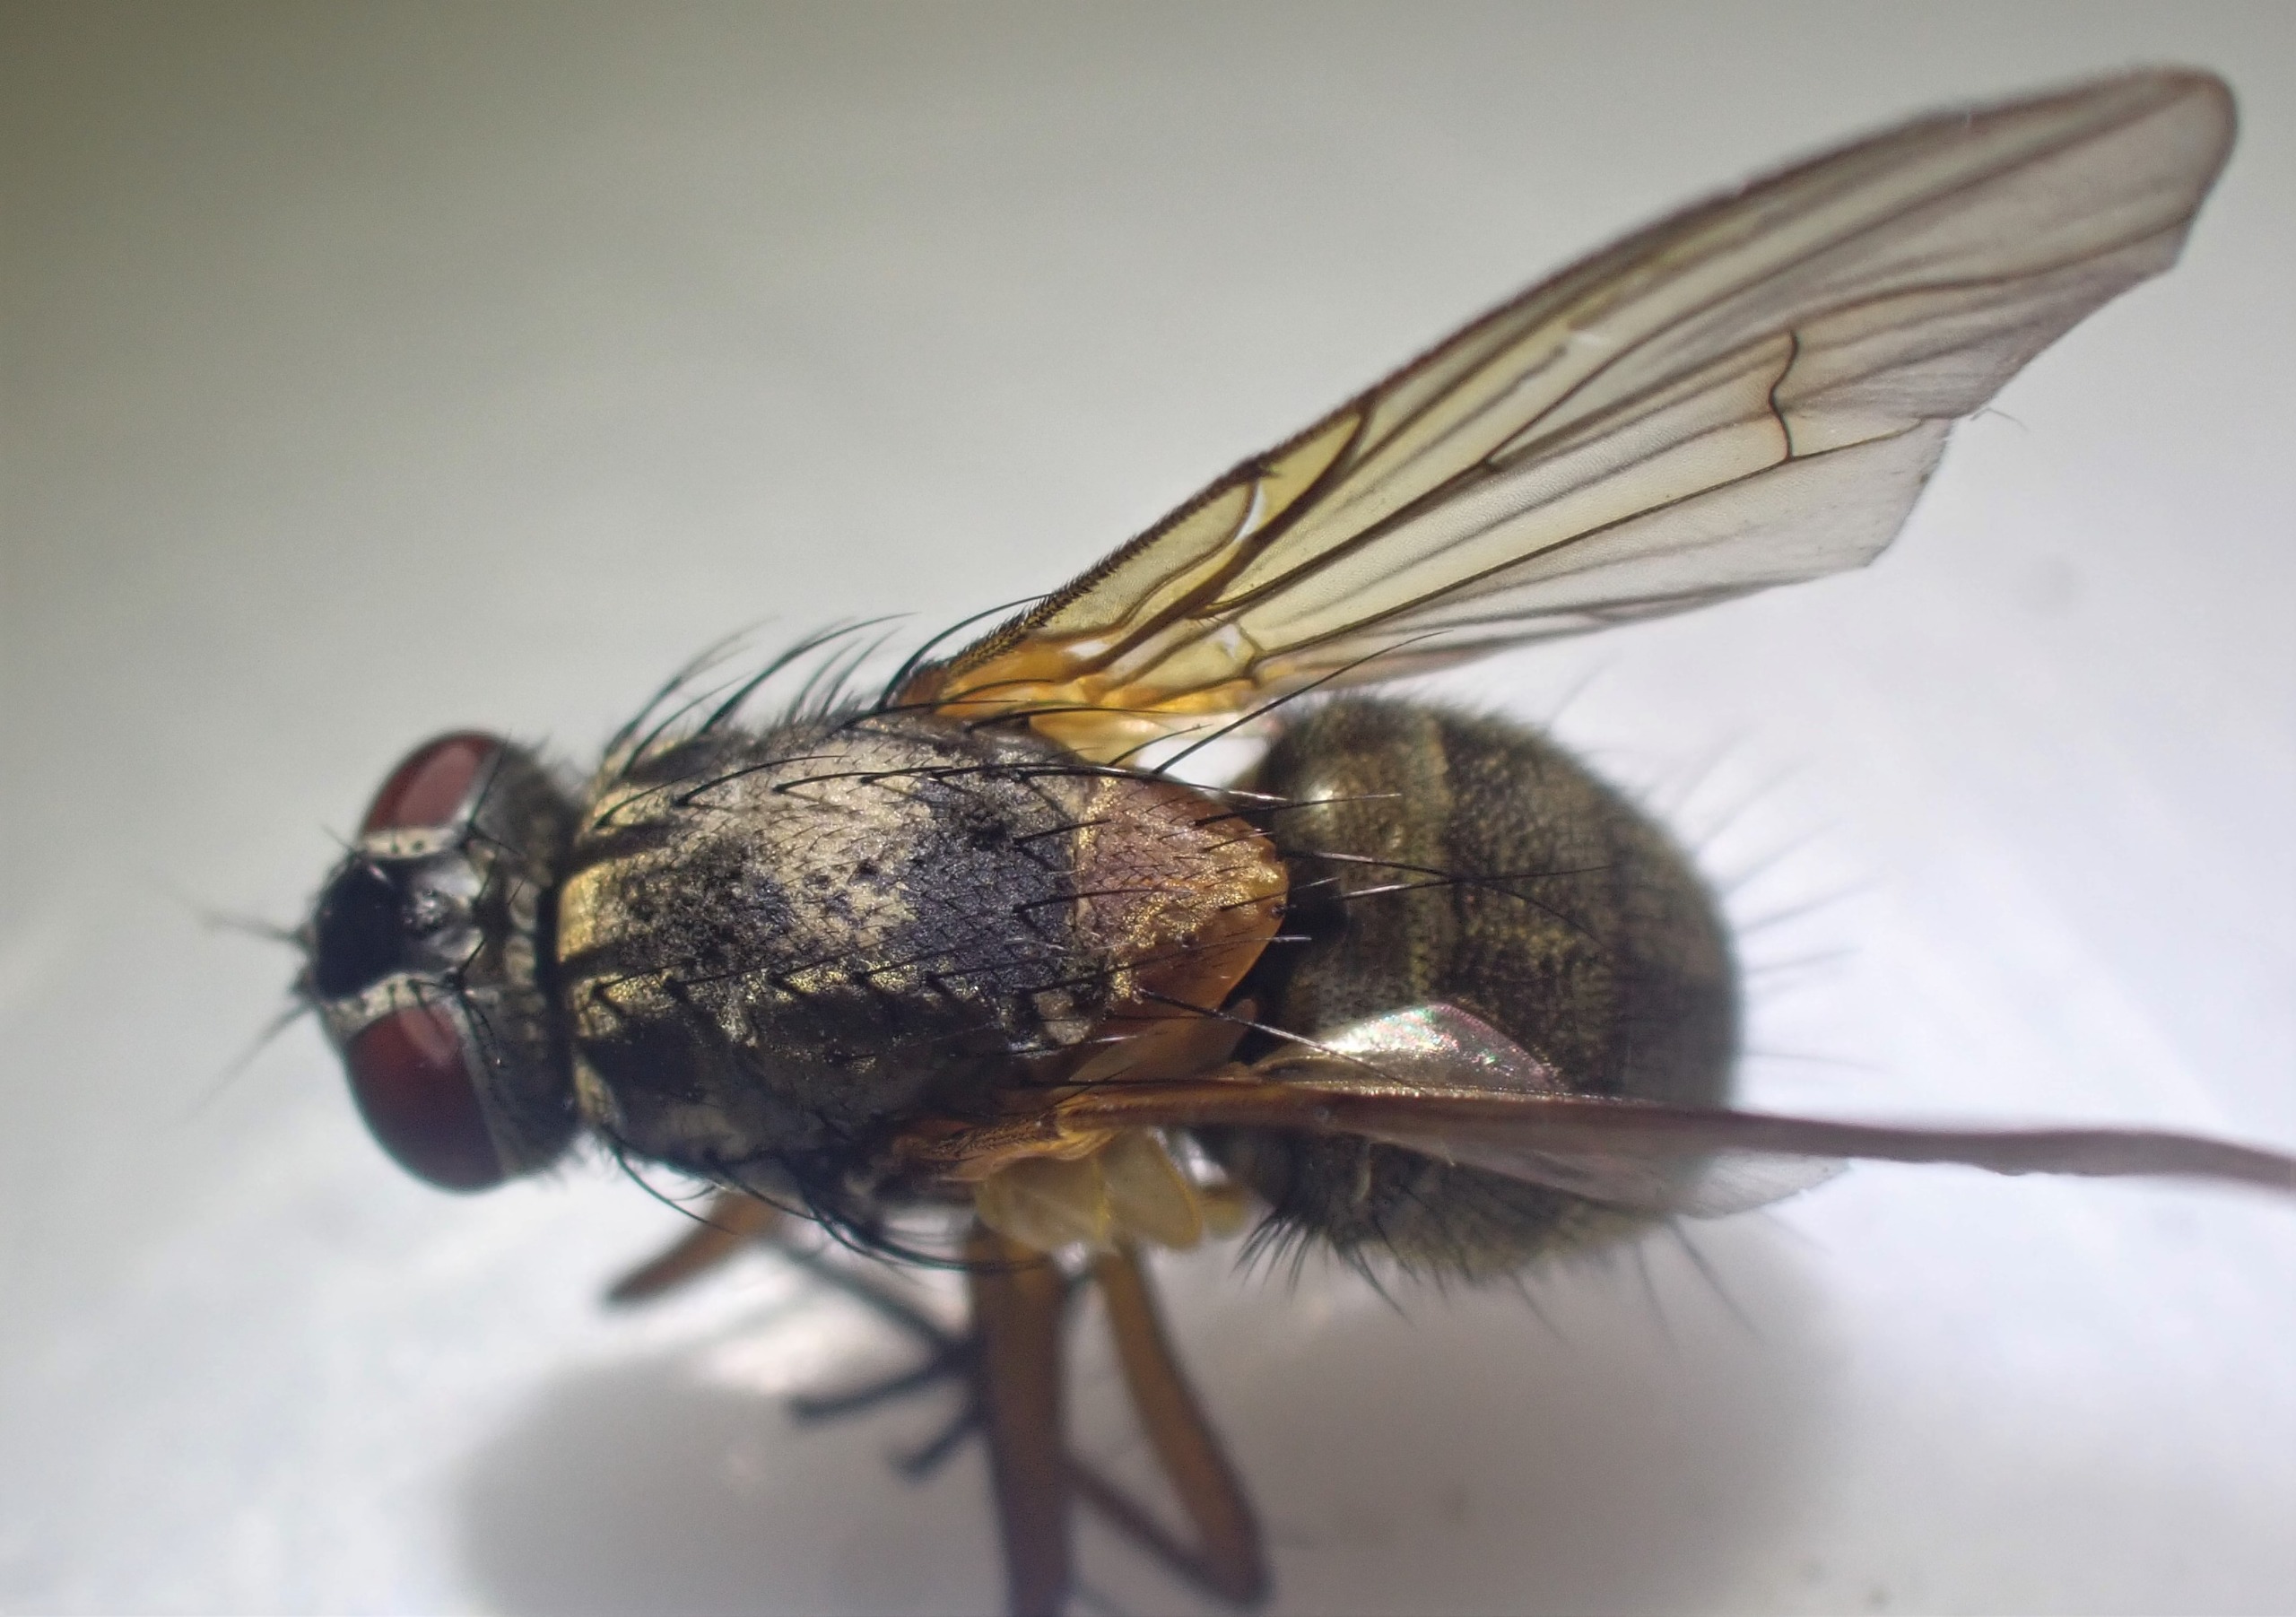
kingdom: Animalia
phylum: Arthropoda
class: Insecta
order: Diptera
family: Muscidae
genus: Phaonia
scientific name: Phaonia angelicae
